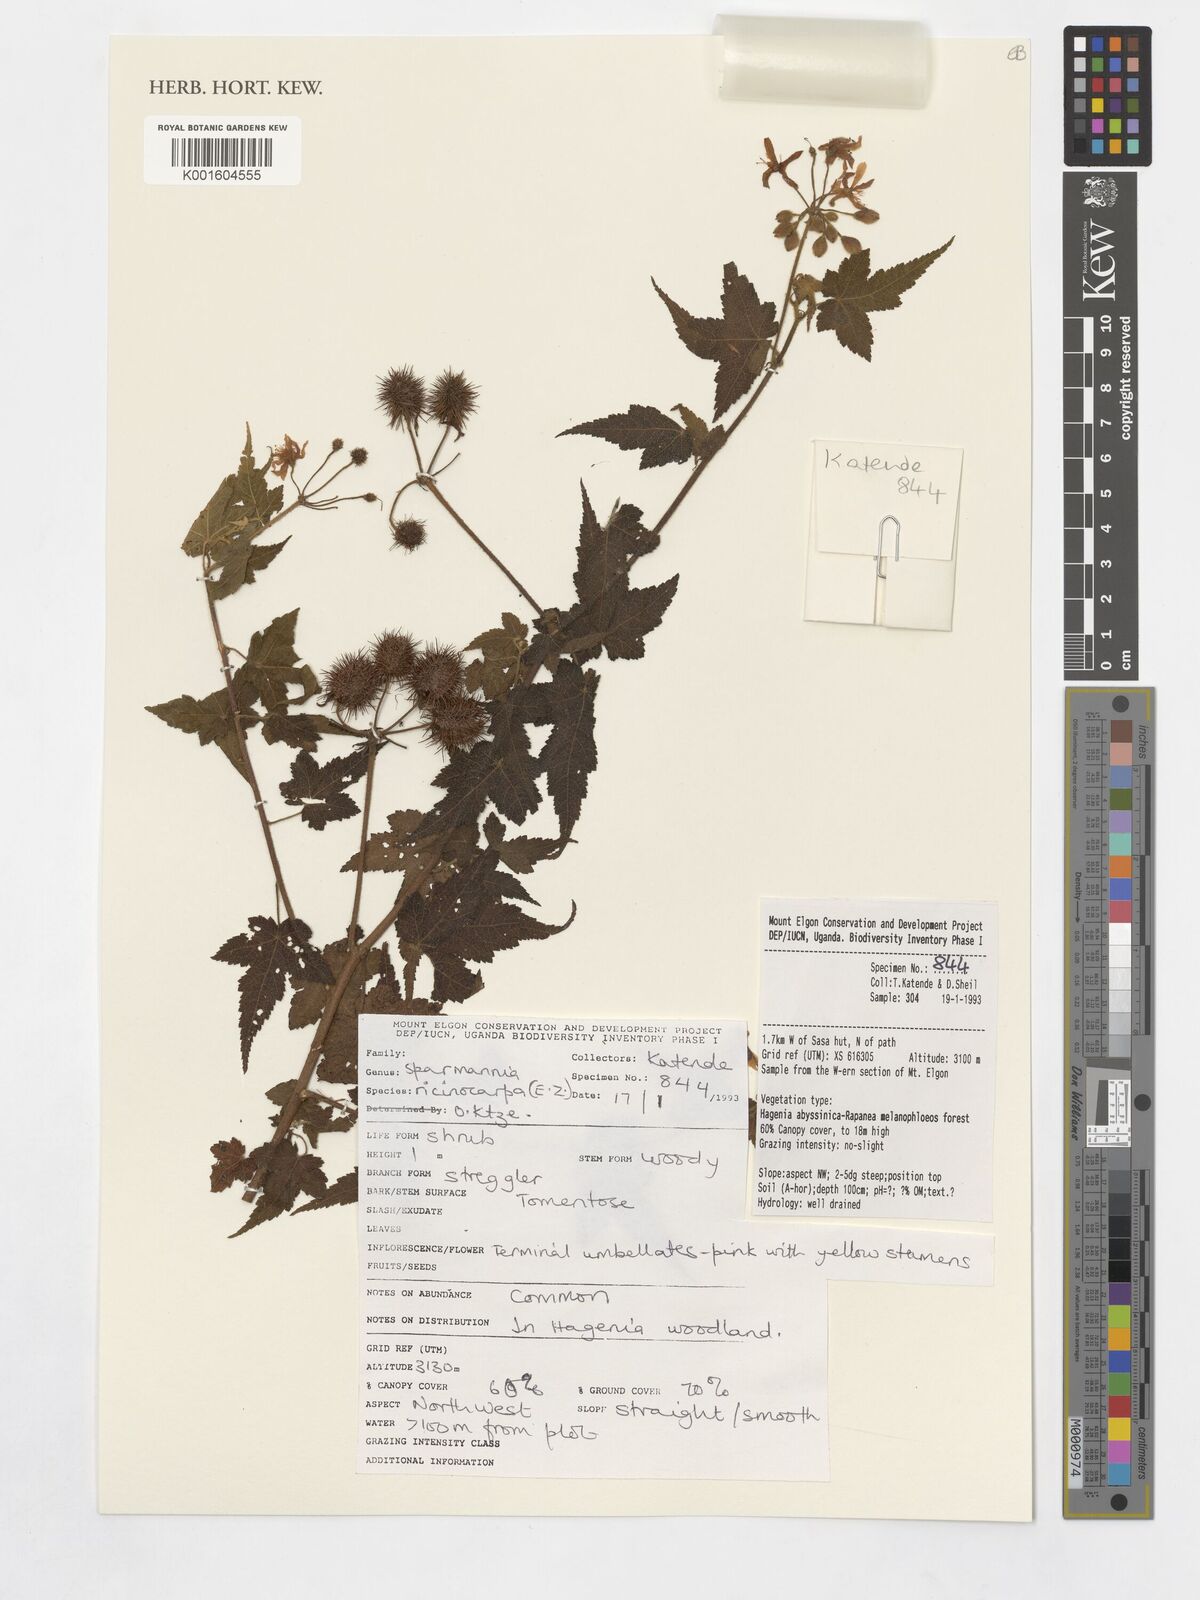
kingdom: Plantae
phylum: Tracheophyta
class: Magnoliopsida
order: Malvales
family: Malvaceae
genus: Sparmannia
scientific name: Sparmannia
